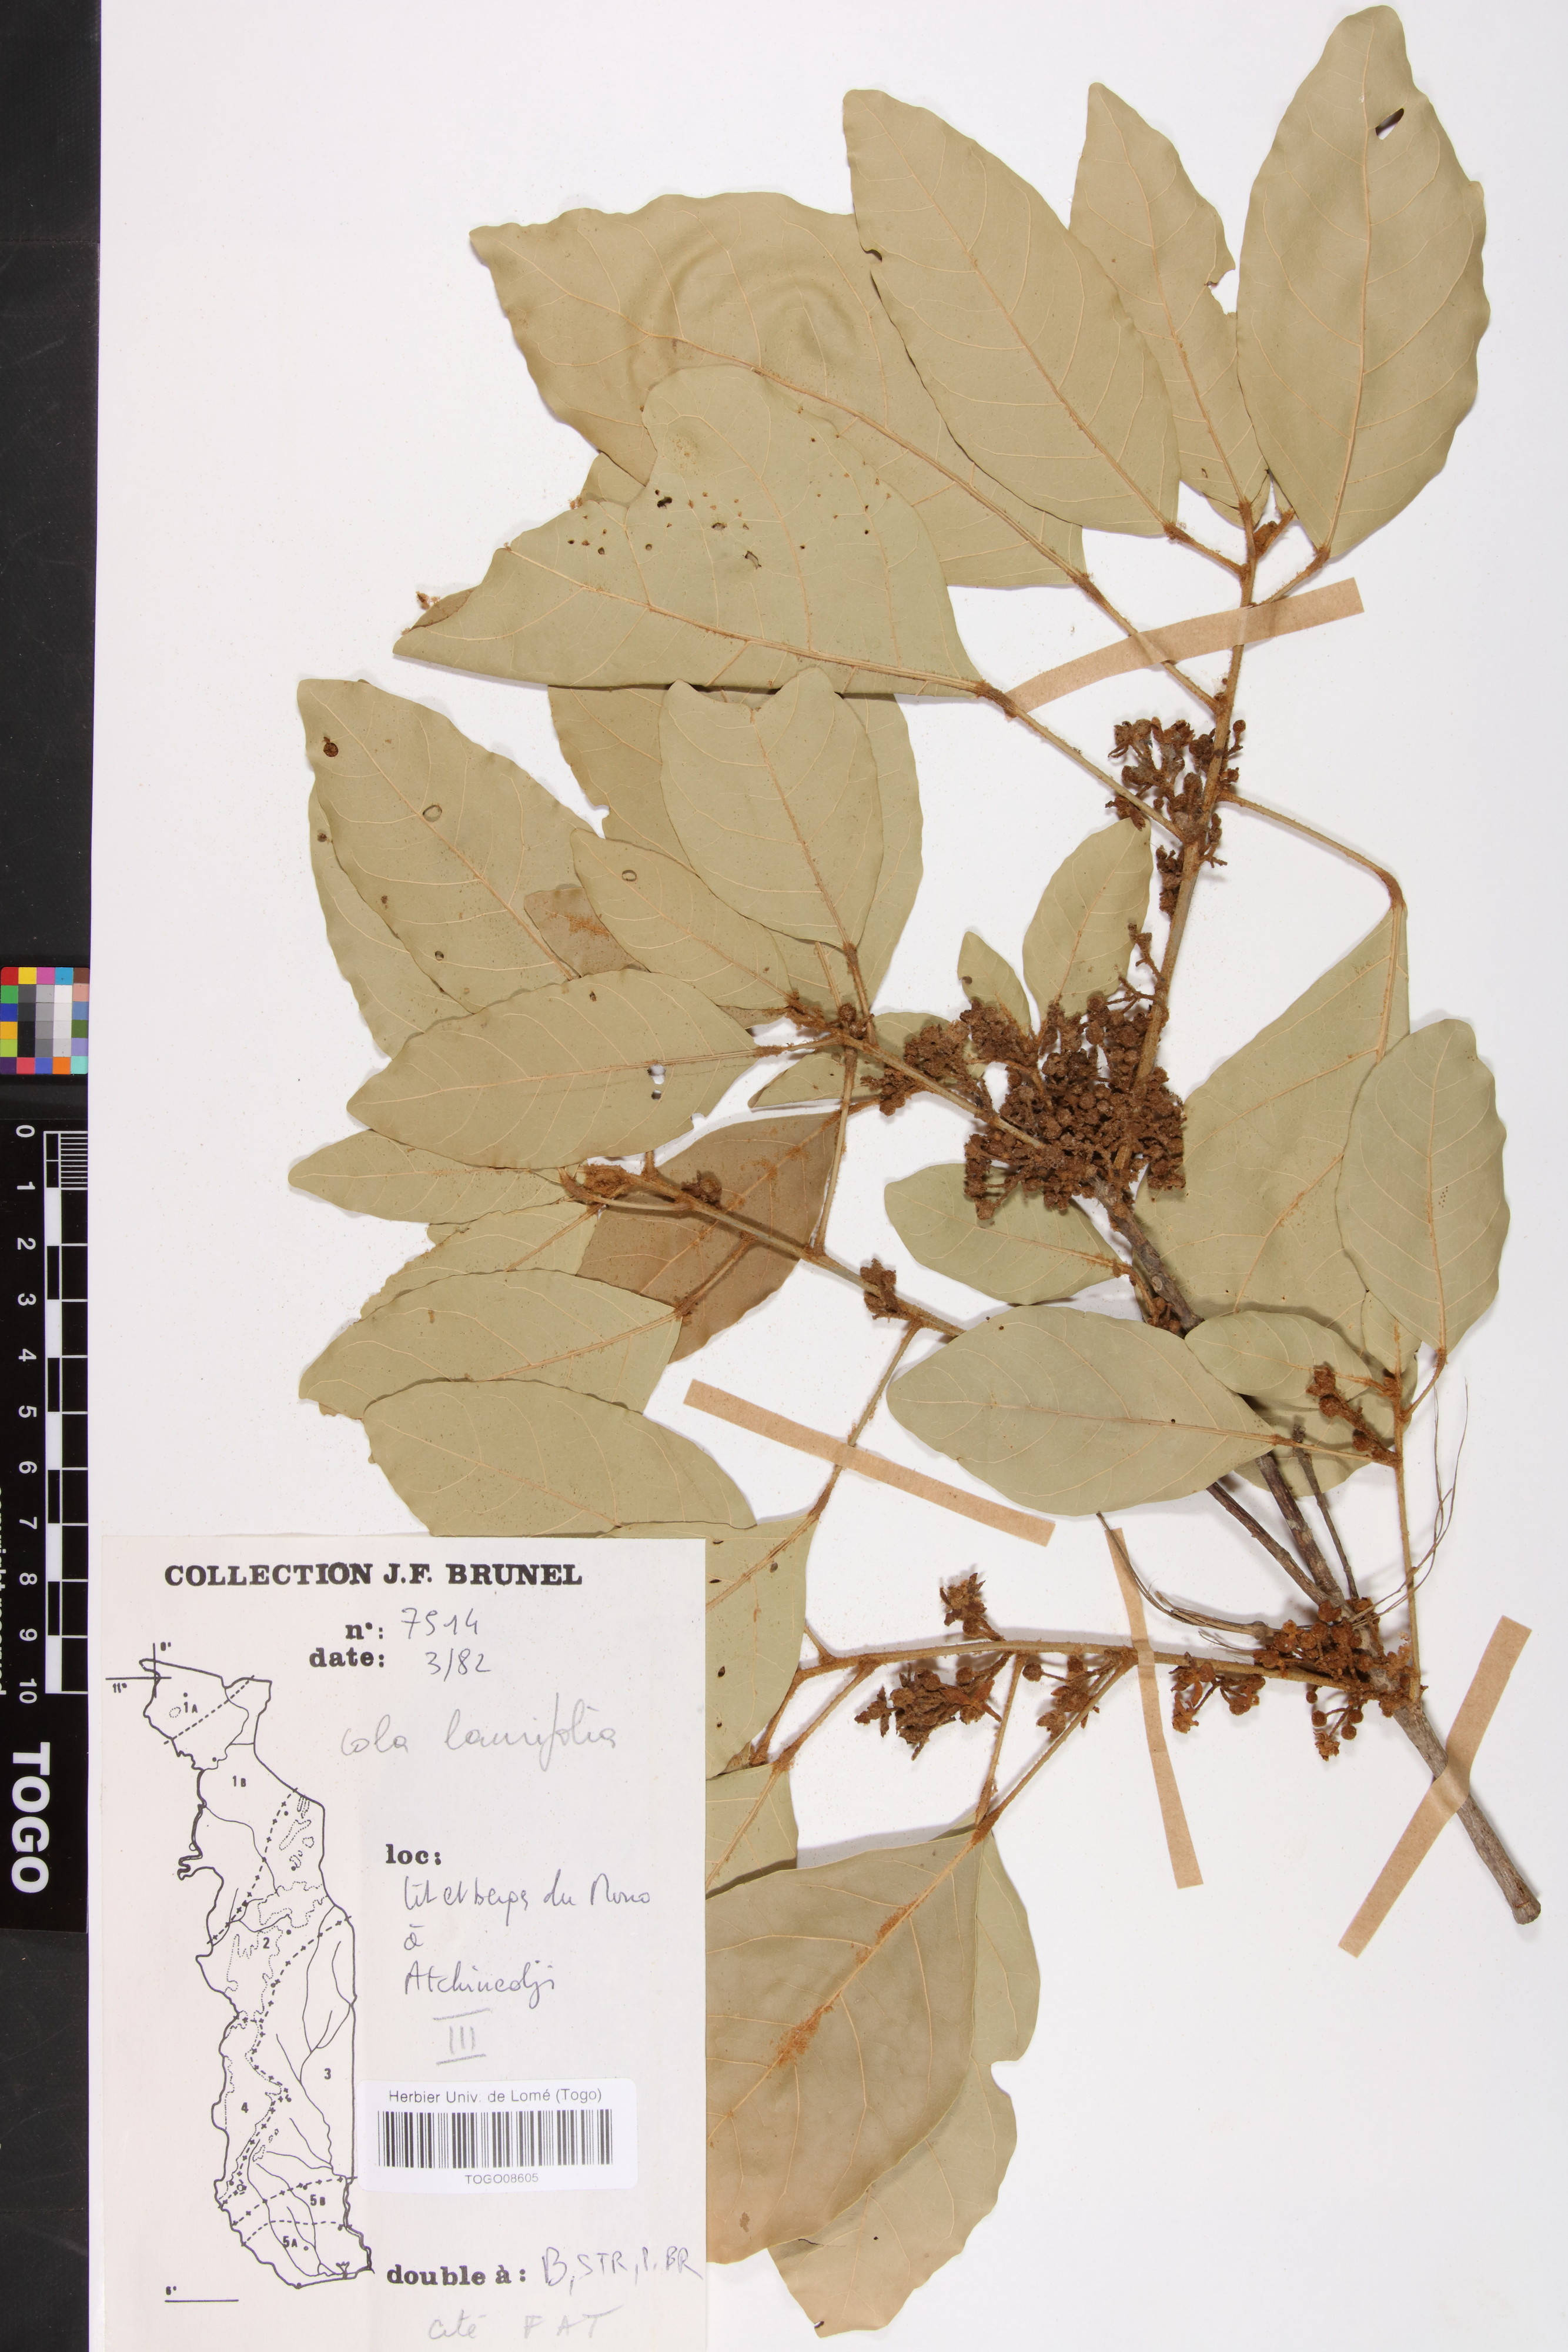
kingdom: Plantae
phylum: Tracheophyta
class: Magnoliopsida
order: Malvales
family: Malvaceae
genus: Cola
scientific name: Cola laurifolia
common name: Laurel-leaved kola
